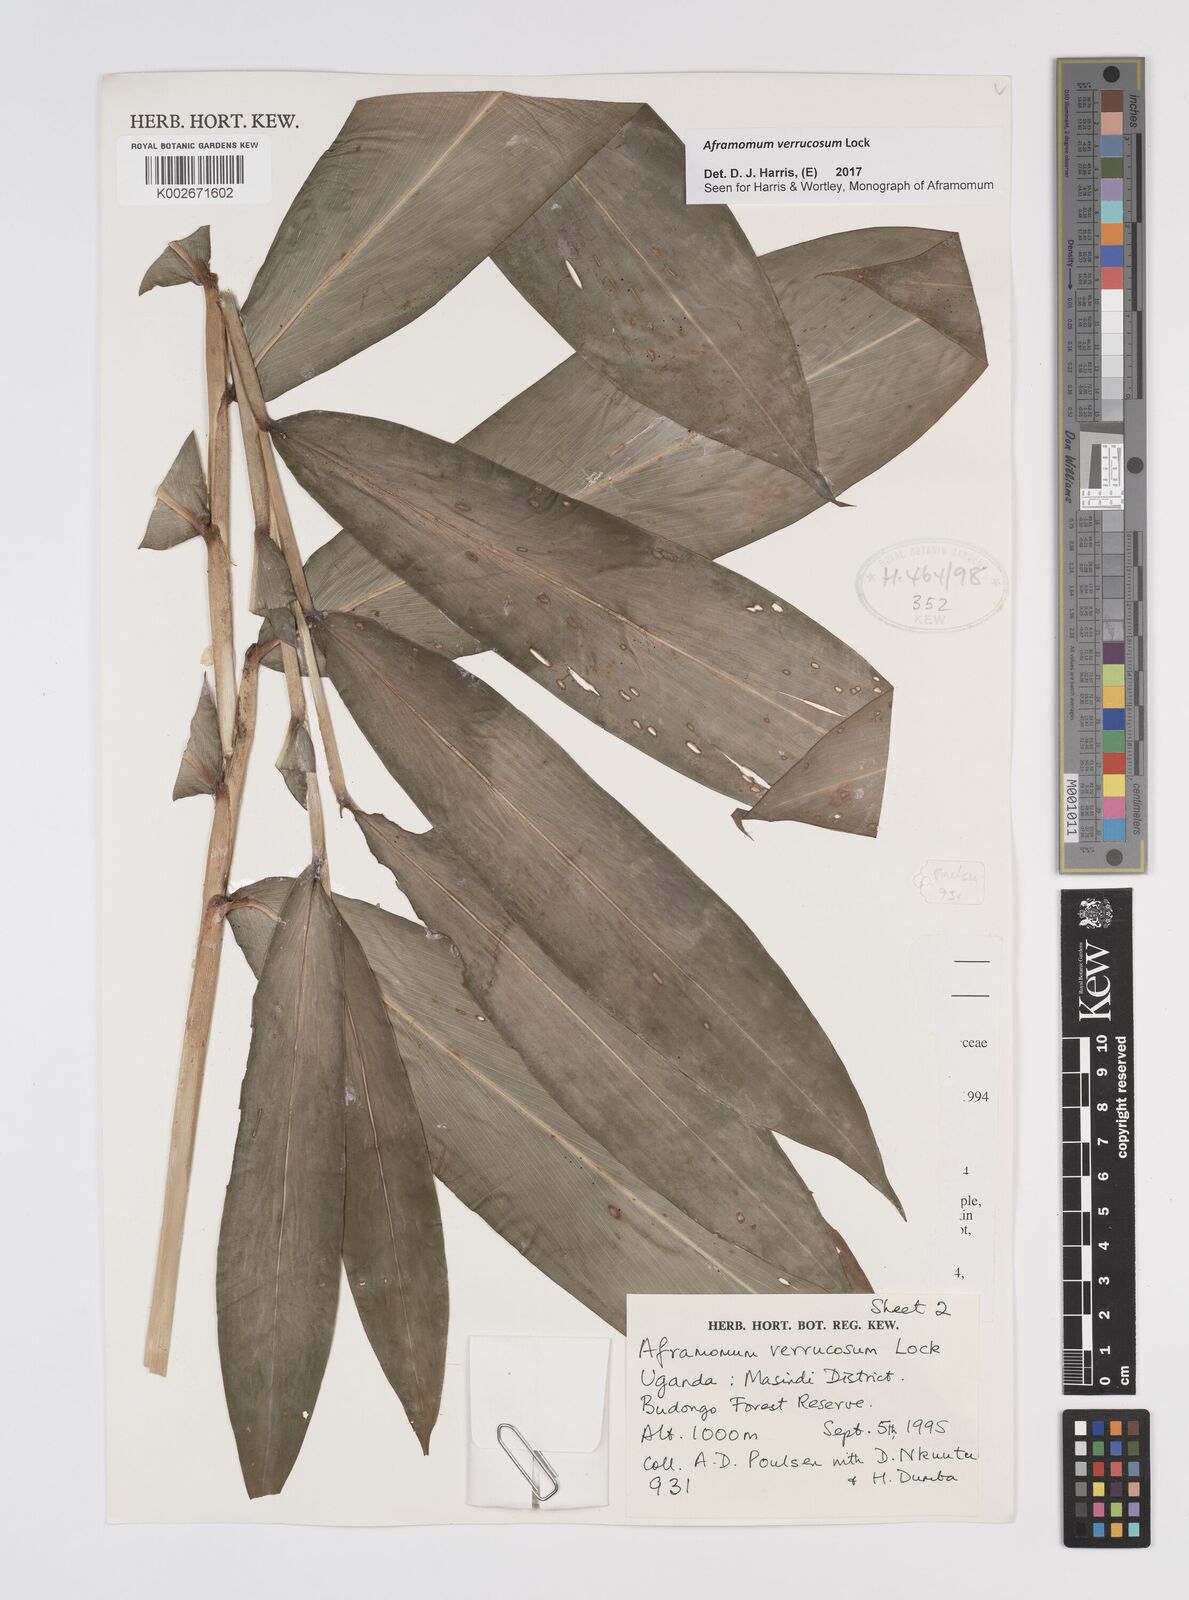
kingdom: Plantae
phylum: Tracheophyta
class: Liliopsida
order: Zingiberales
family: Zingiberaceae
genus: Aframomum
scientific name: Aframomum verrucosum
